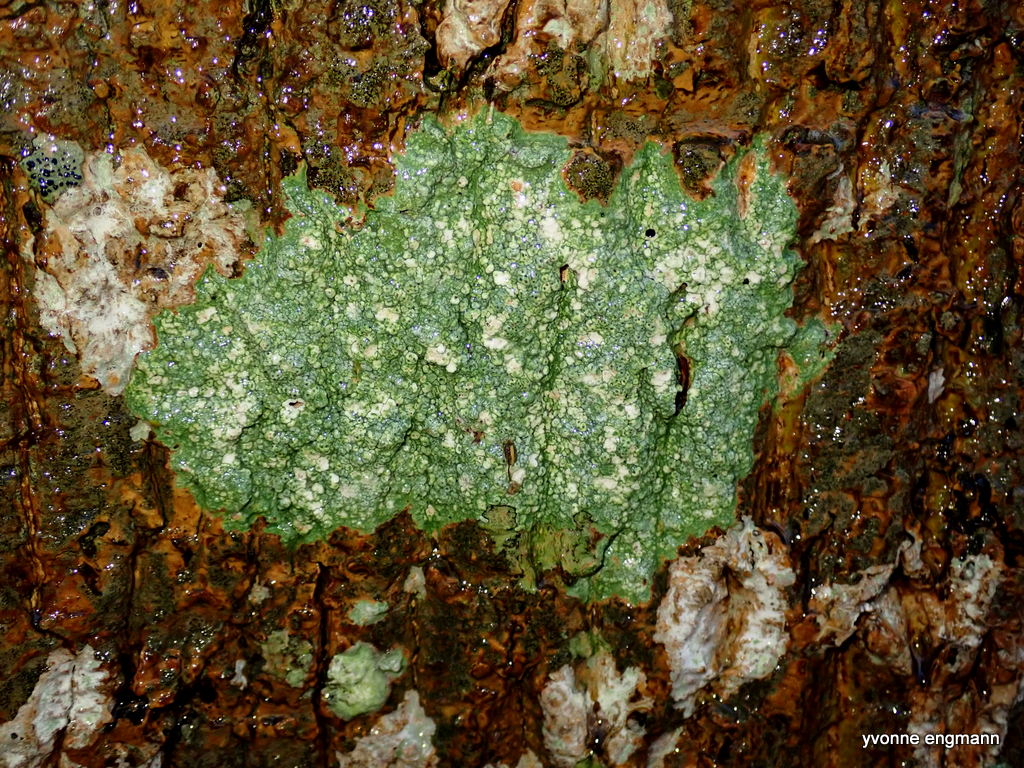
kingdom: Fungi
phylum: Ascomycota
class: Lecanoromycetes
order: Pertusariales
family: Pertusariaceae
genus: Pertusaria
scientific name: Pertusaria pertusa
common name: almindelig prikvortelav
